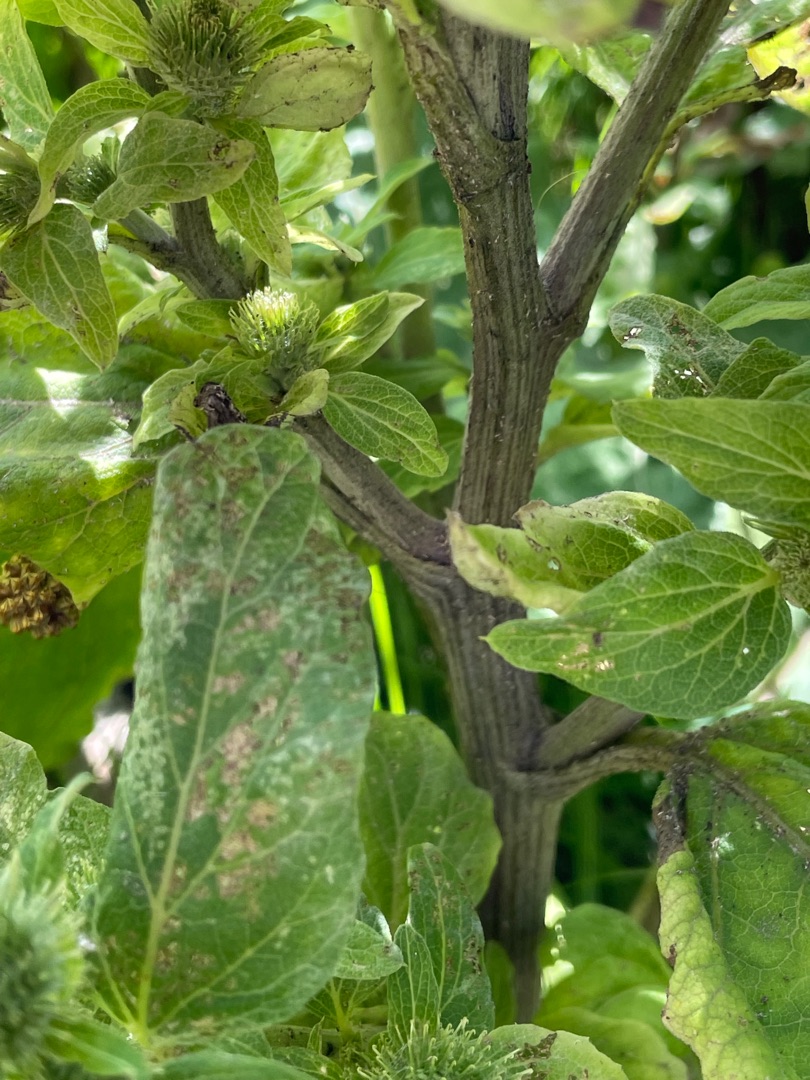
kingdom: Plantae
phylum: Tracheophyta
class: Magnoliopsida
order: Asterales
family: Asteraceae
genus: Arctium
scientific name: Arctium minus
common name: Liden burre
